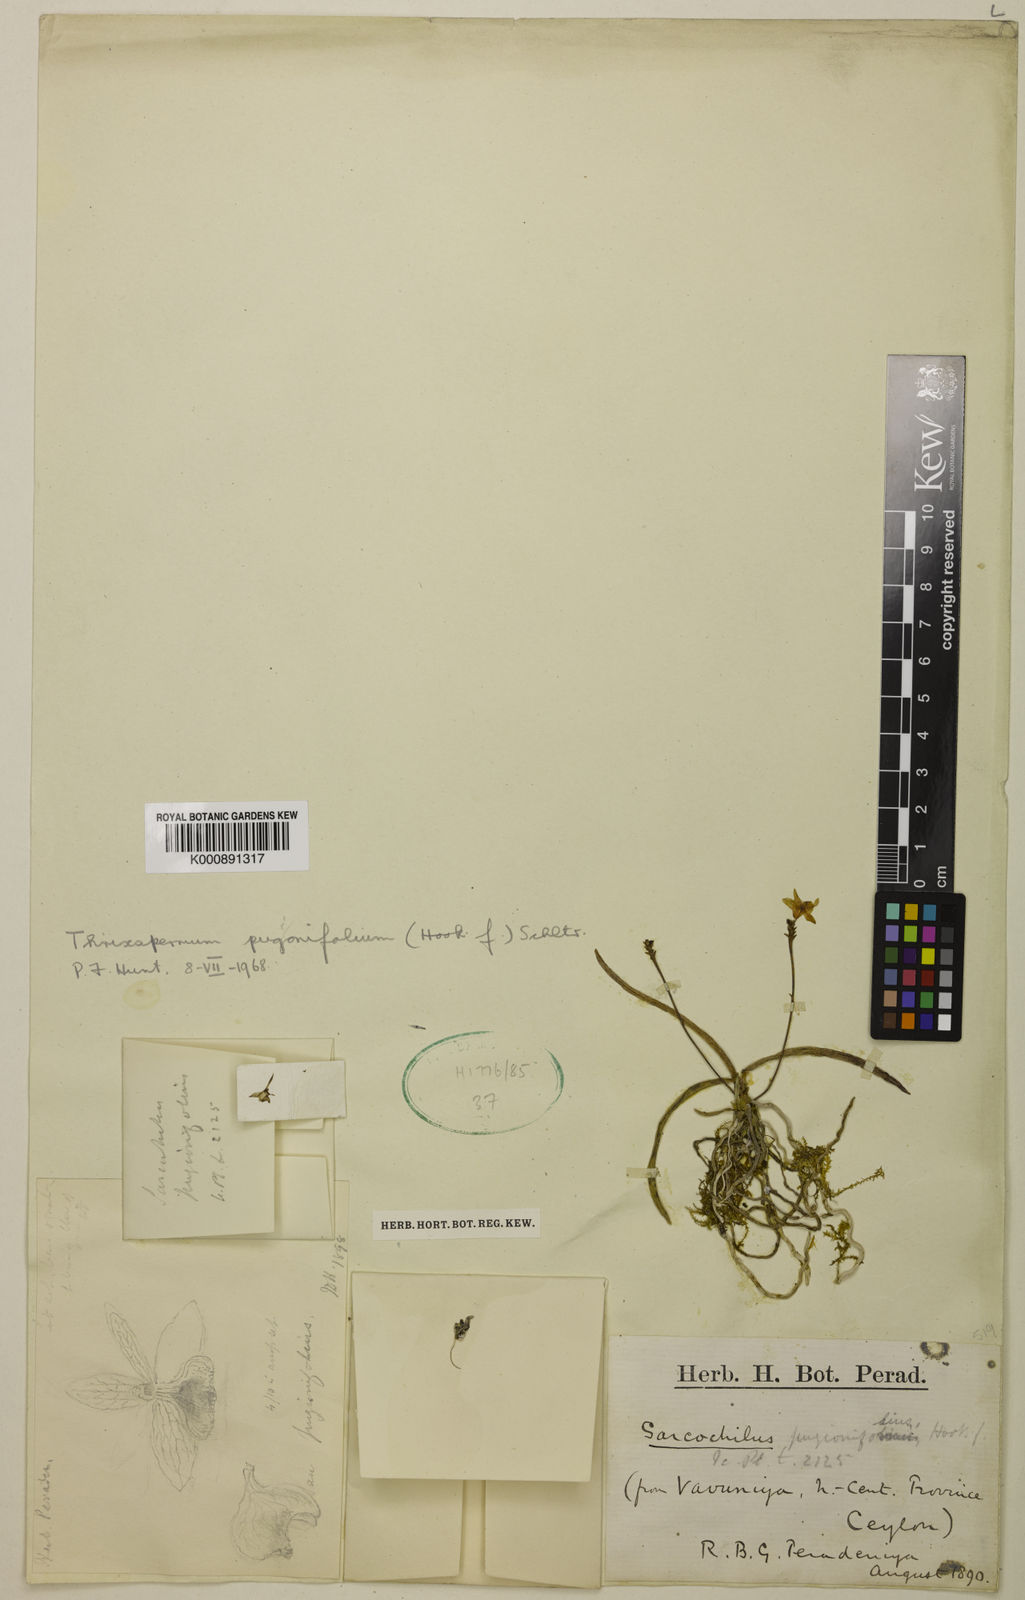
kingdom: Plantae
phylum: Tracheophyta
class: Liliopsida
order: Asparagales
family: Orchidaceae
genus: Thrixspermum
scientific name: Thrixspermum pugionifolium
